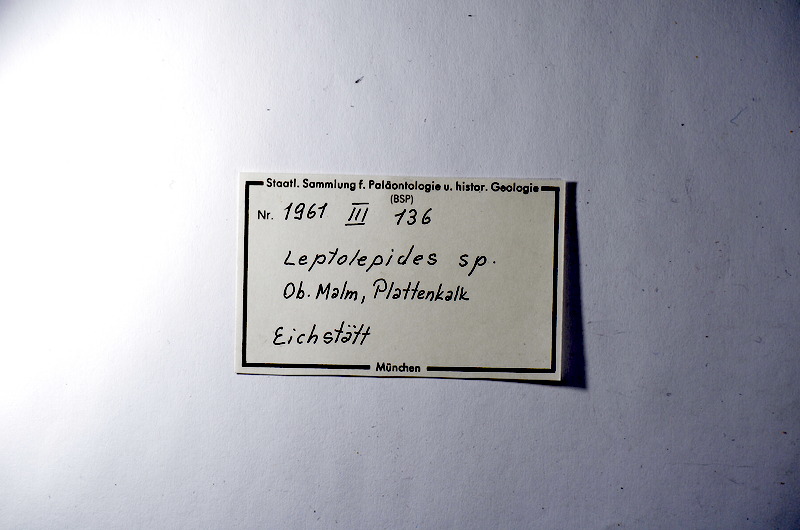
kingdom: Animalia
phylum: Chordata
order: Salmoniformes
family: Orthogonikleithridae
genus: Leptolepides
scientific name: Leptolepides
